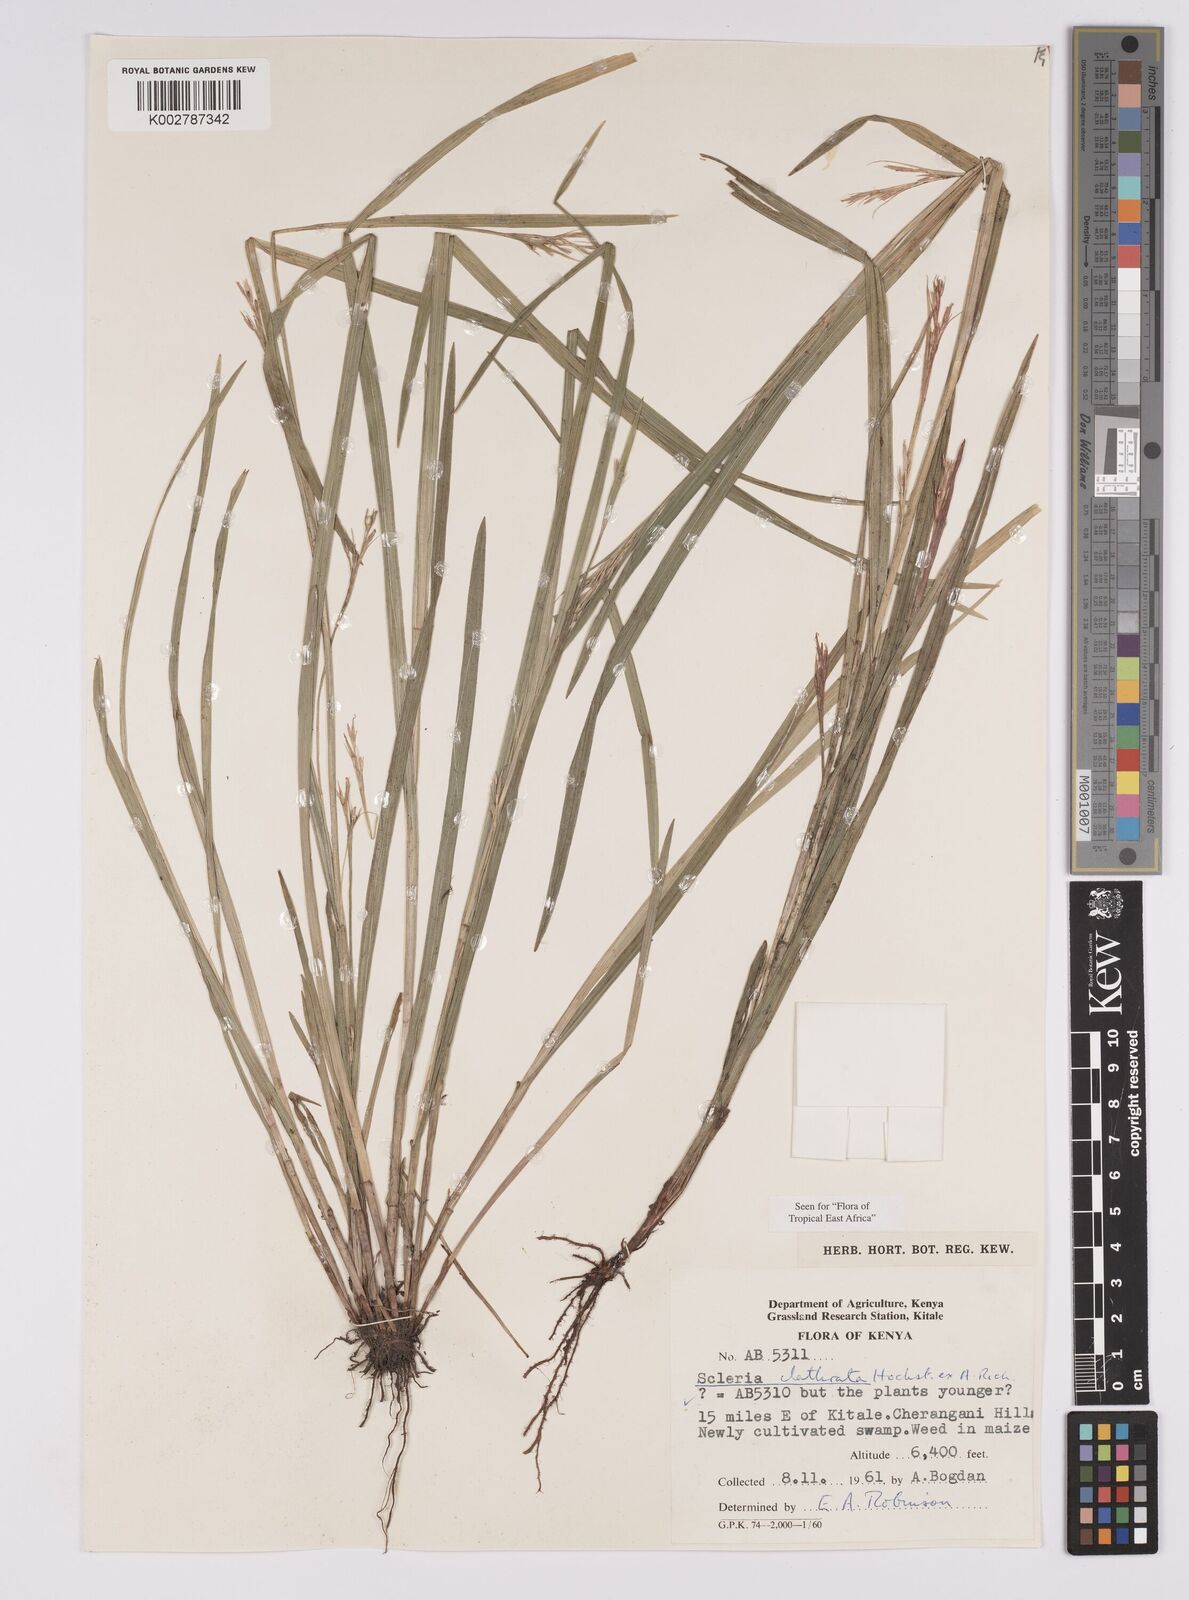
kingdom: Plantae
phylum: Tracheophyta
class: Liliopsida
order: Poales
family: Cyperaceae
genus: Scleria
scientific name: Scleria clathrata
